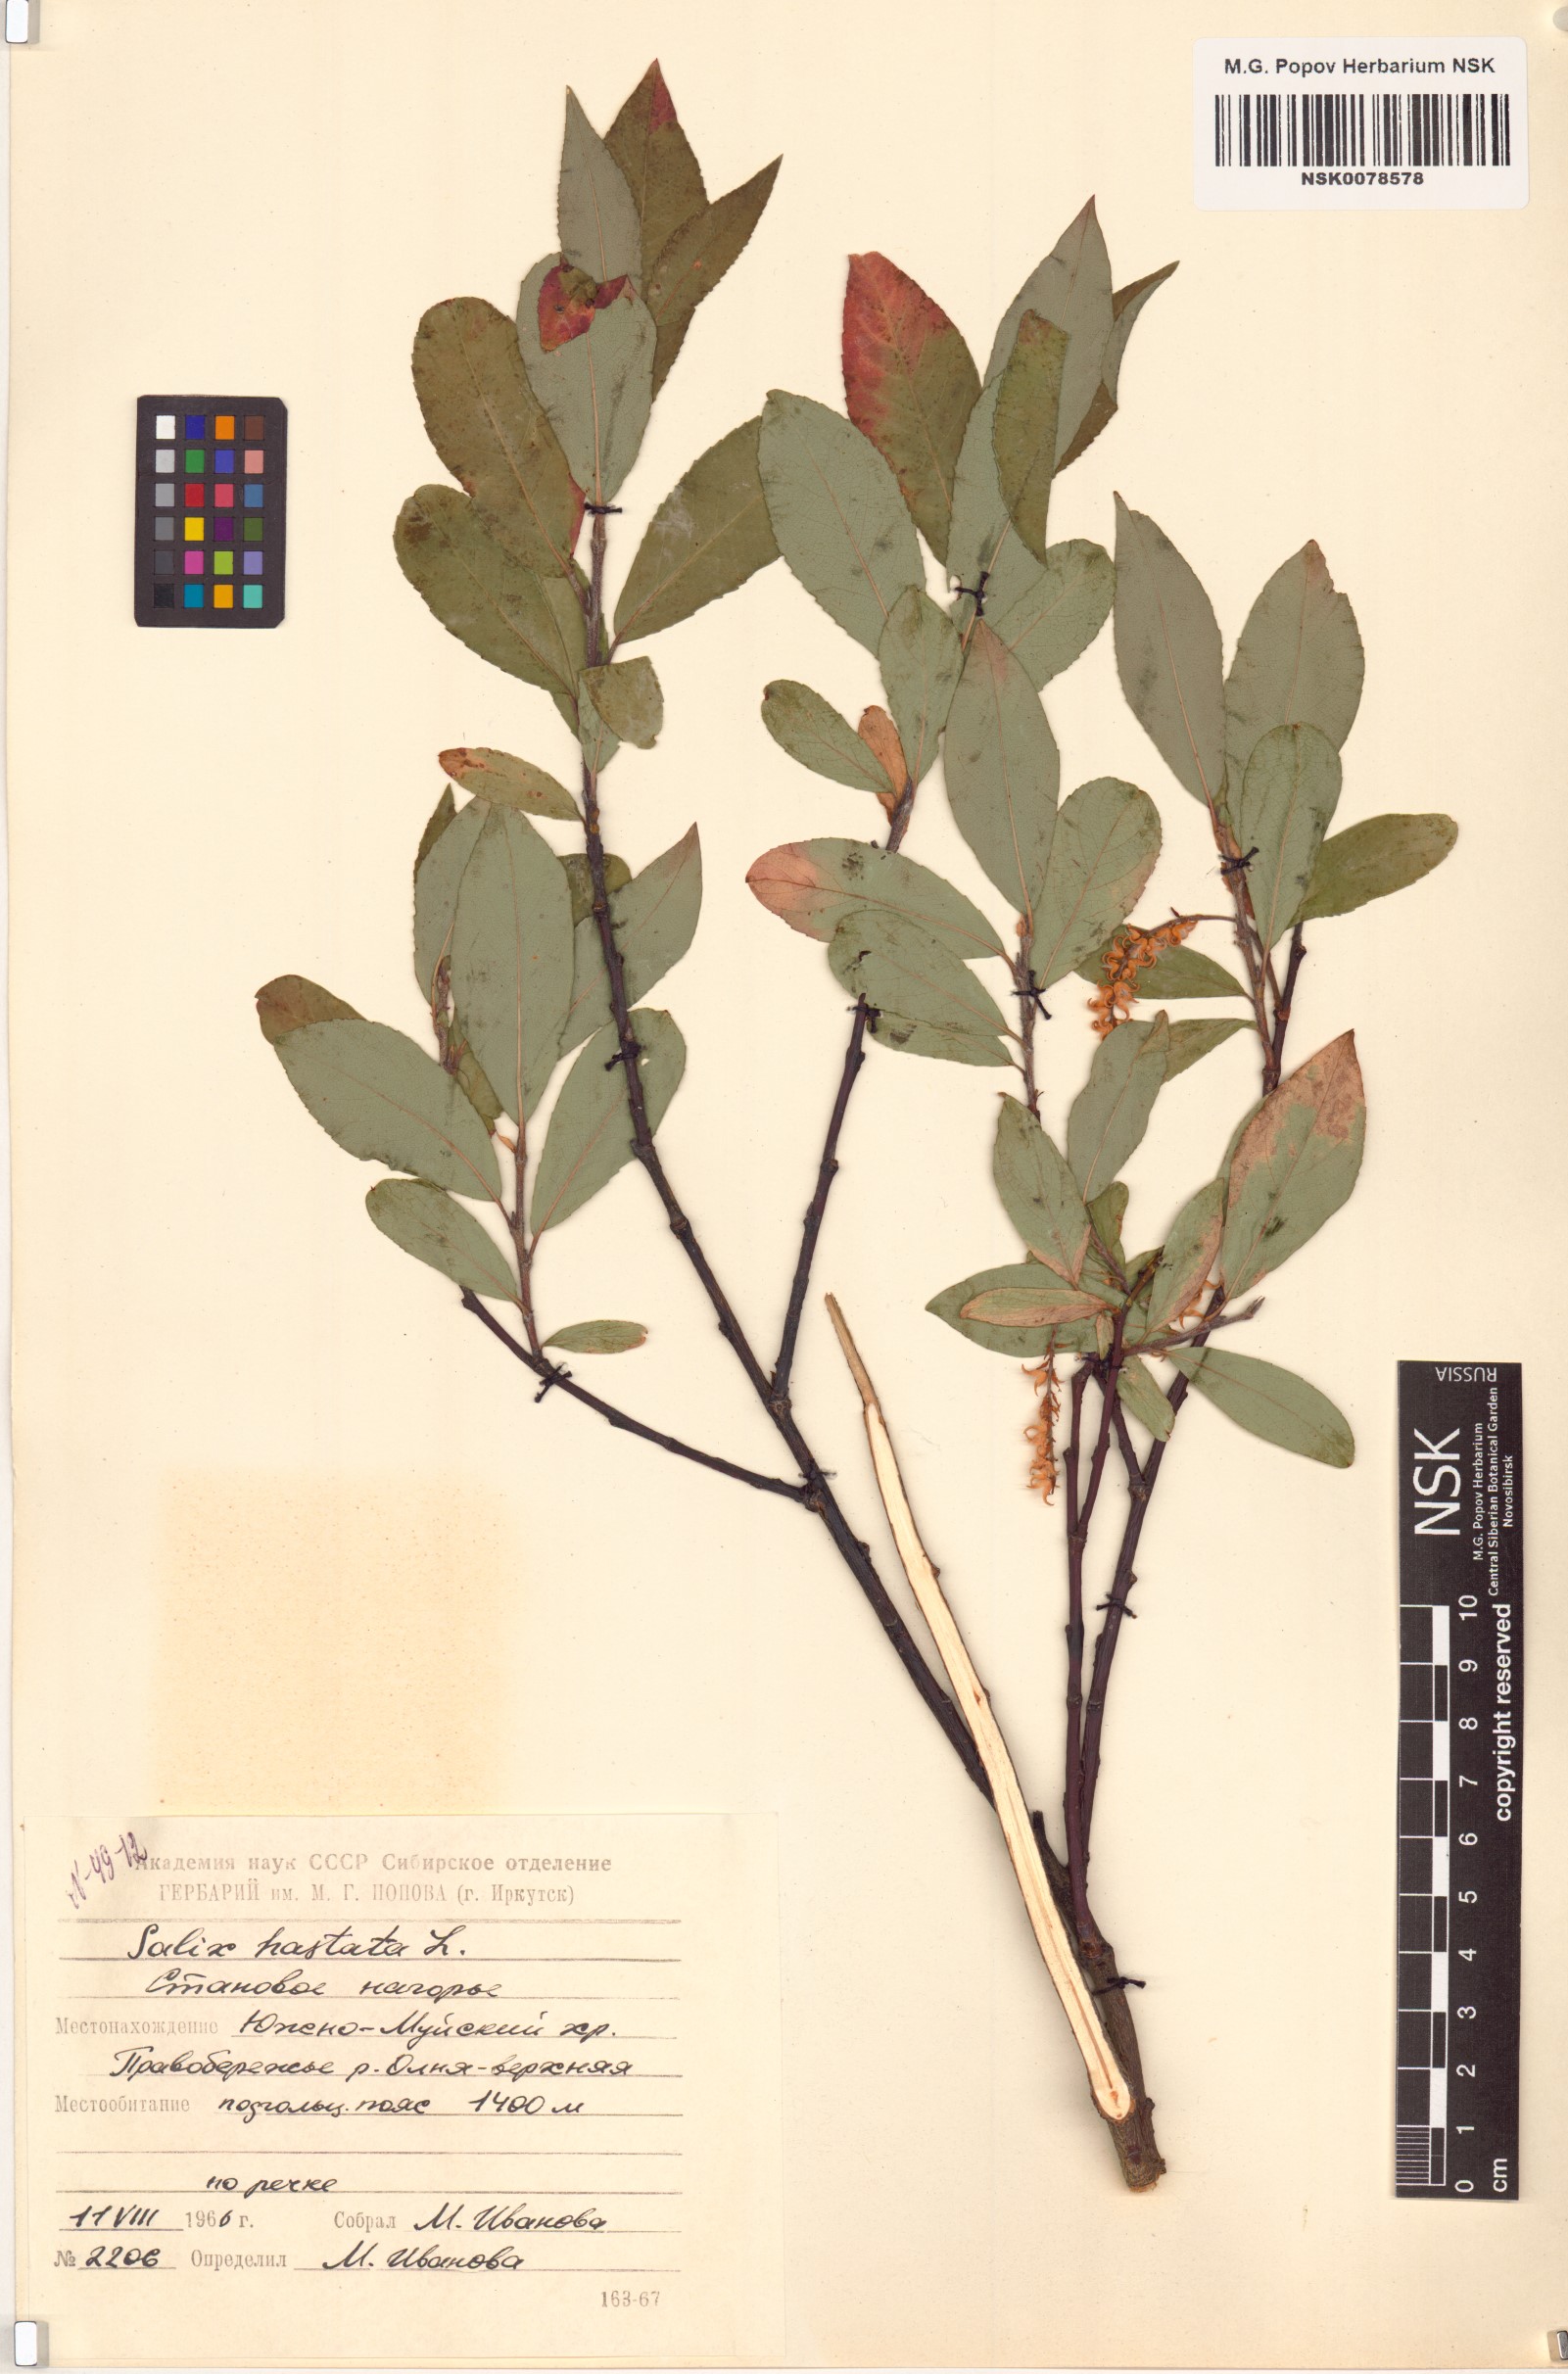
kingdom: Plantae
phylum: Tracheophyta
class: Magnoliopsida
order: Malpighiales
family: Salicaceae
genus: Salix
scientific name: Salix hastata
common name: Halberd willow
